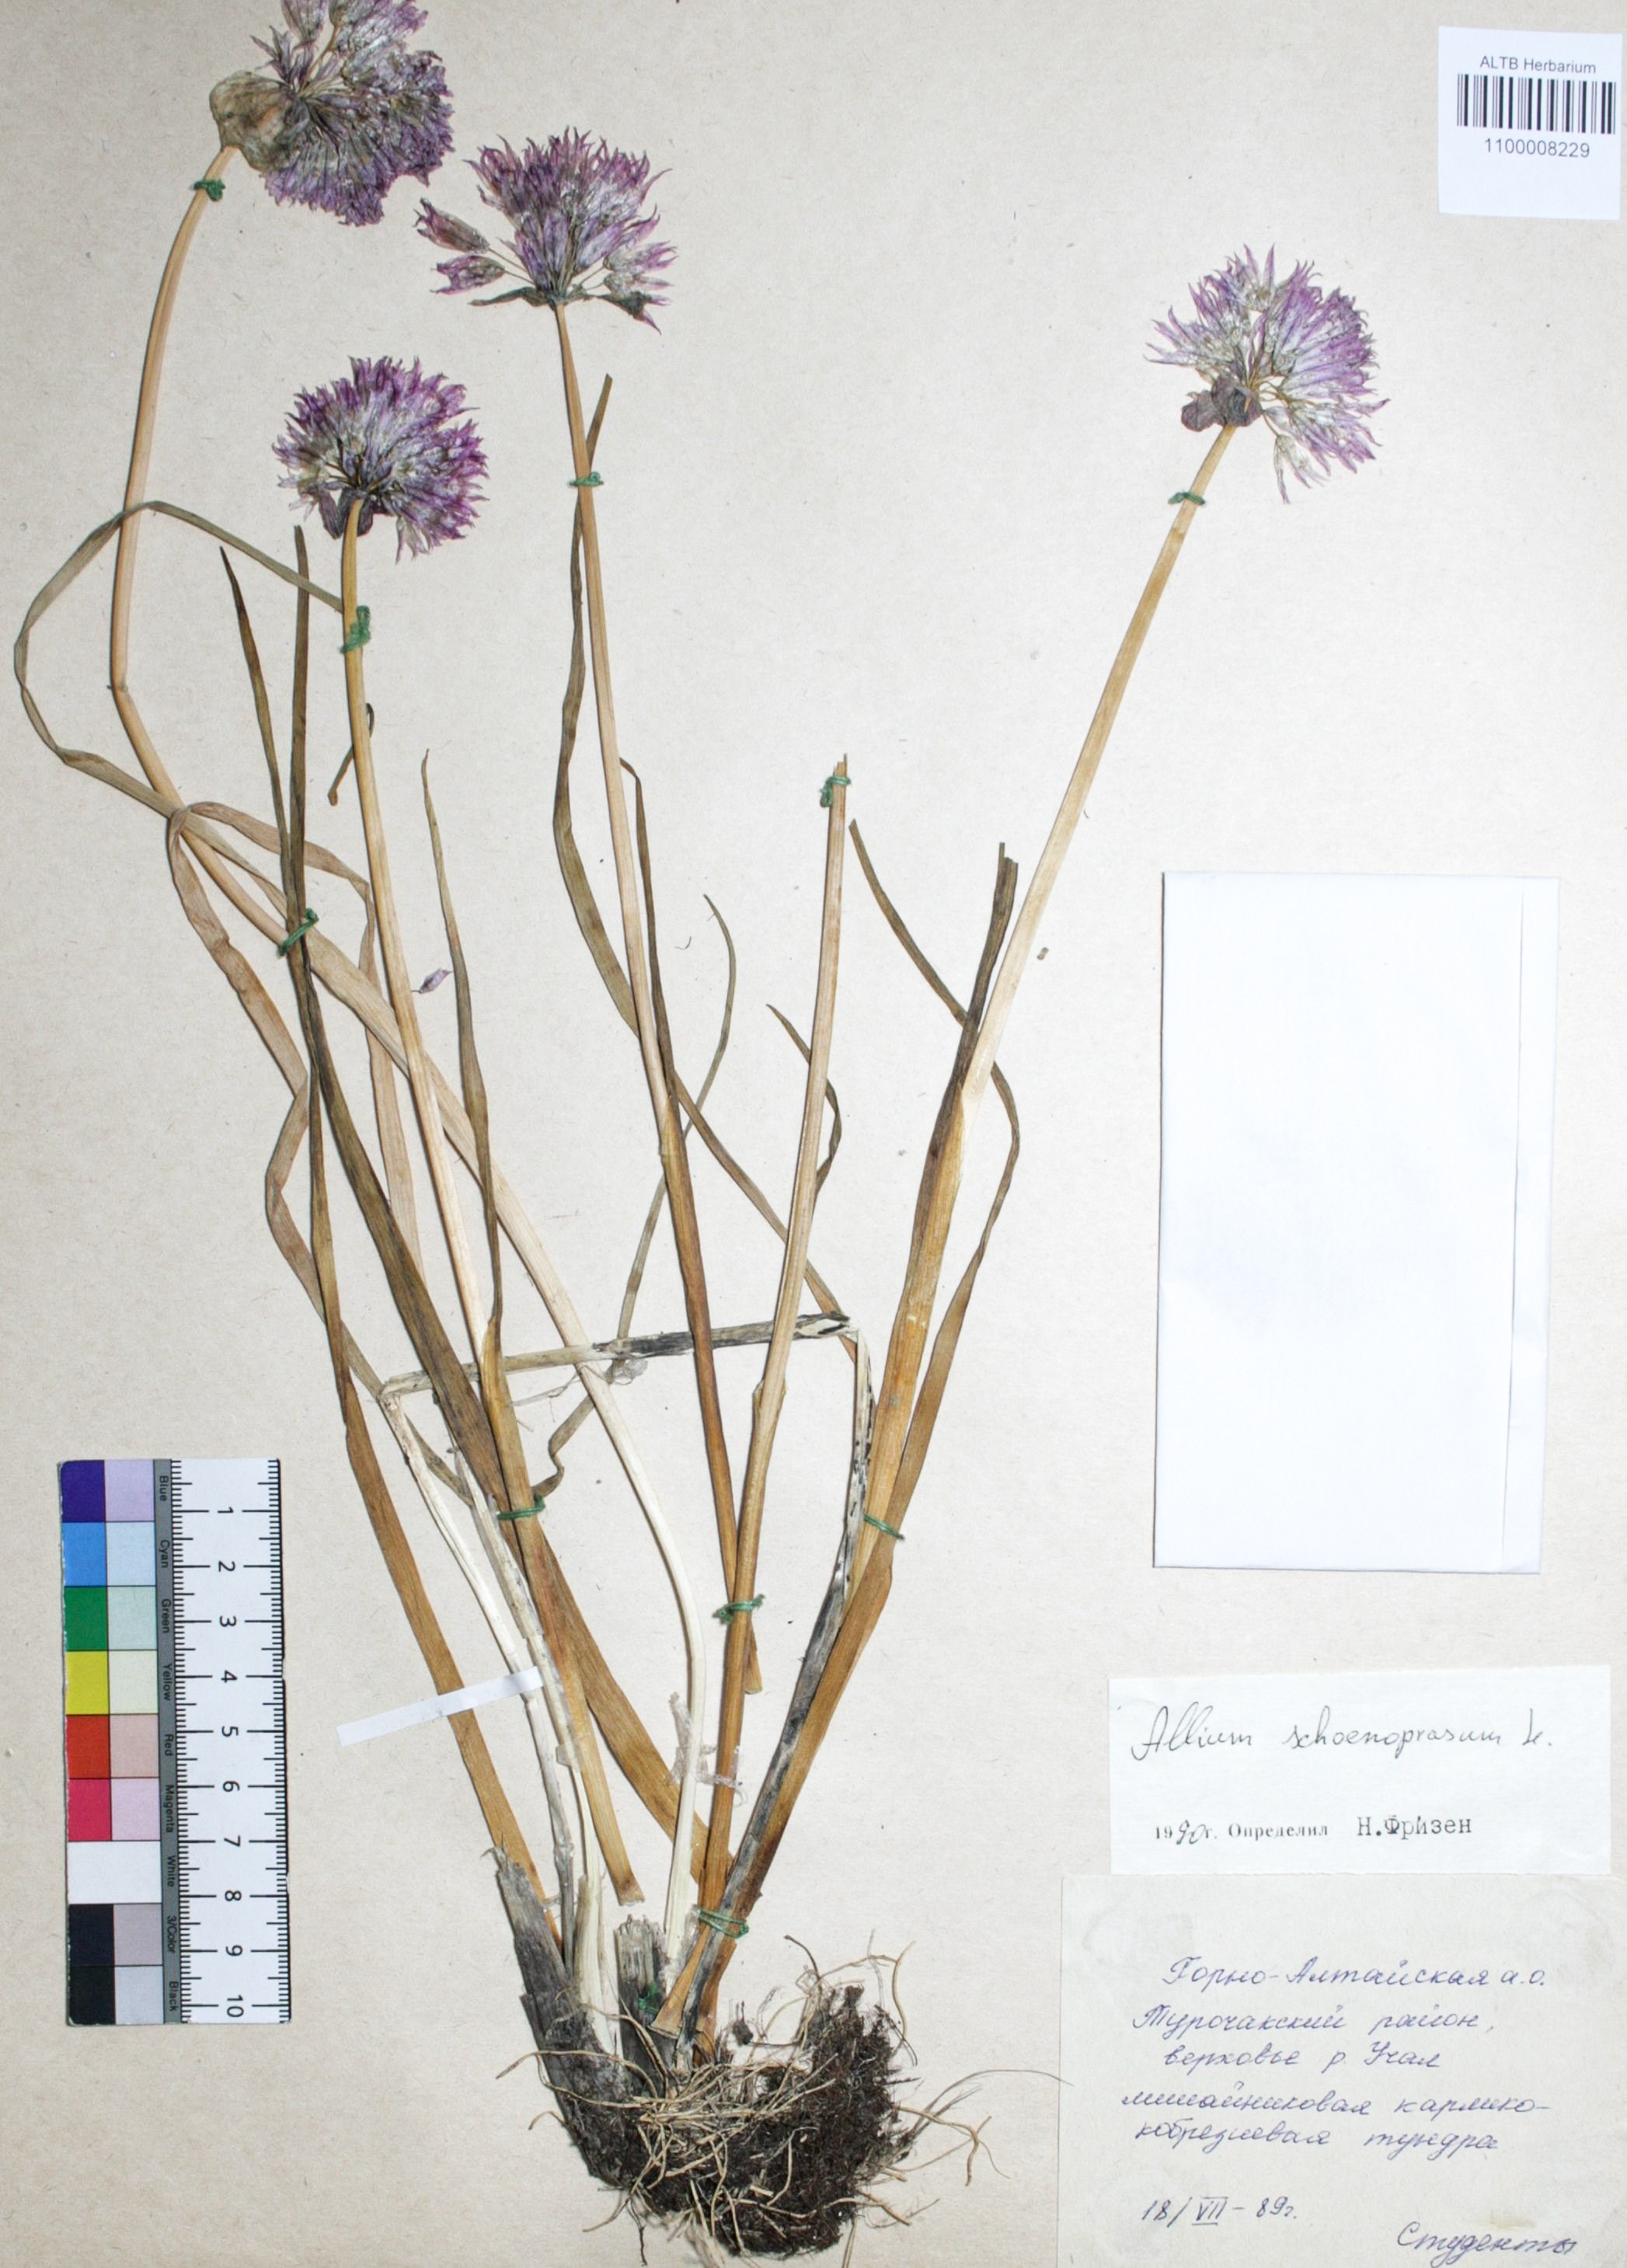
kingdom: Plantae
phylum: Tracheophyta
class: Liliopsida
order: Asparagales
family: Amaryllidaceae
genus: Allium
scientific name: Allium schoenoprasum
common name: Chives
